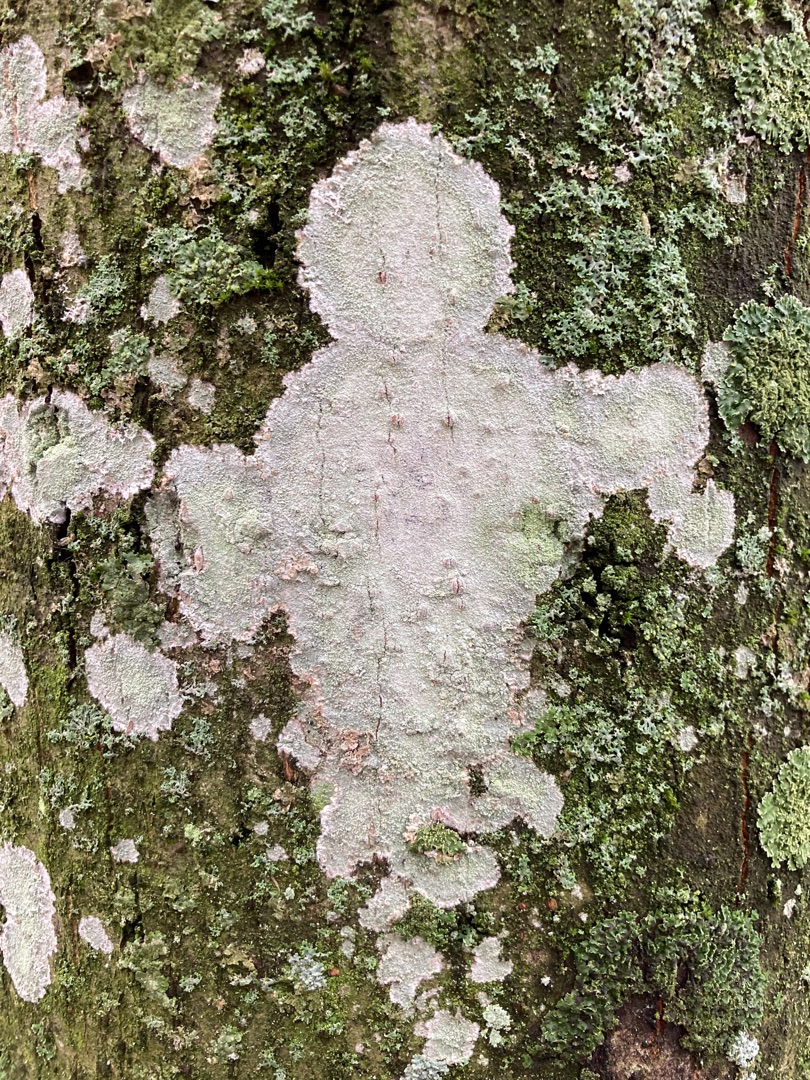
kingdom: Fungi
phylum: Ascomycota
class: Lecanoromycetes
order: Ostropales
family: Phlyctidaceae
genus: Phlyctis
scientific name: Phlyctis argena
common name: Almindelig sølvlav
